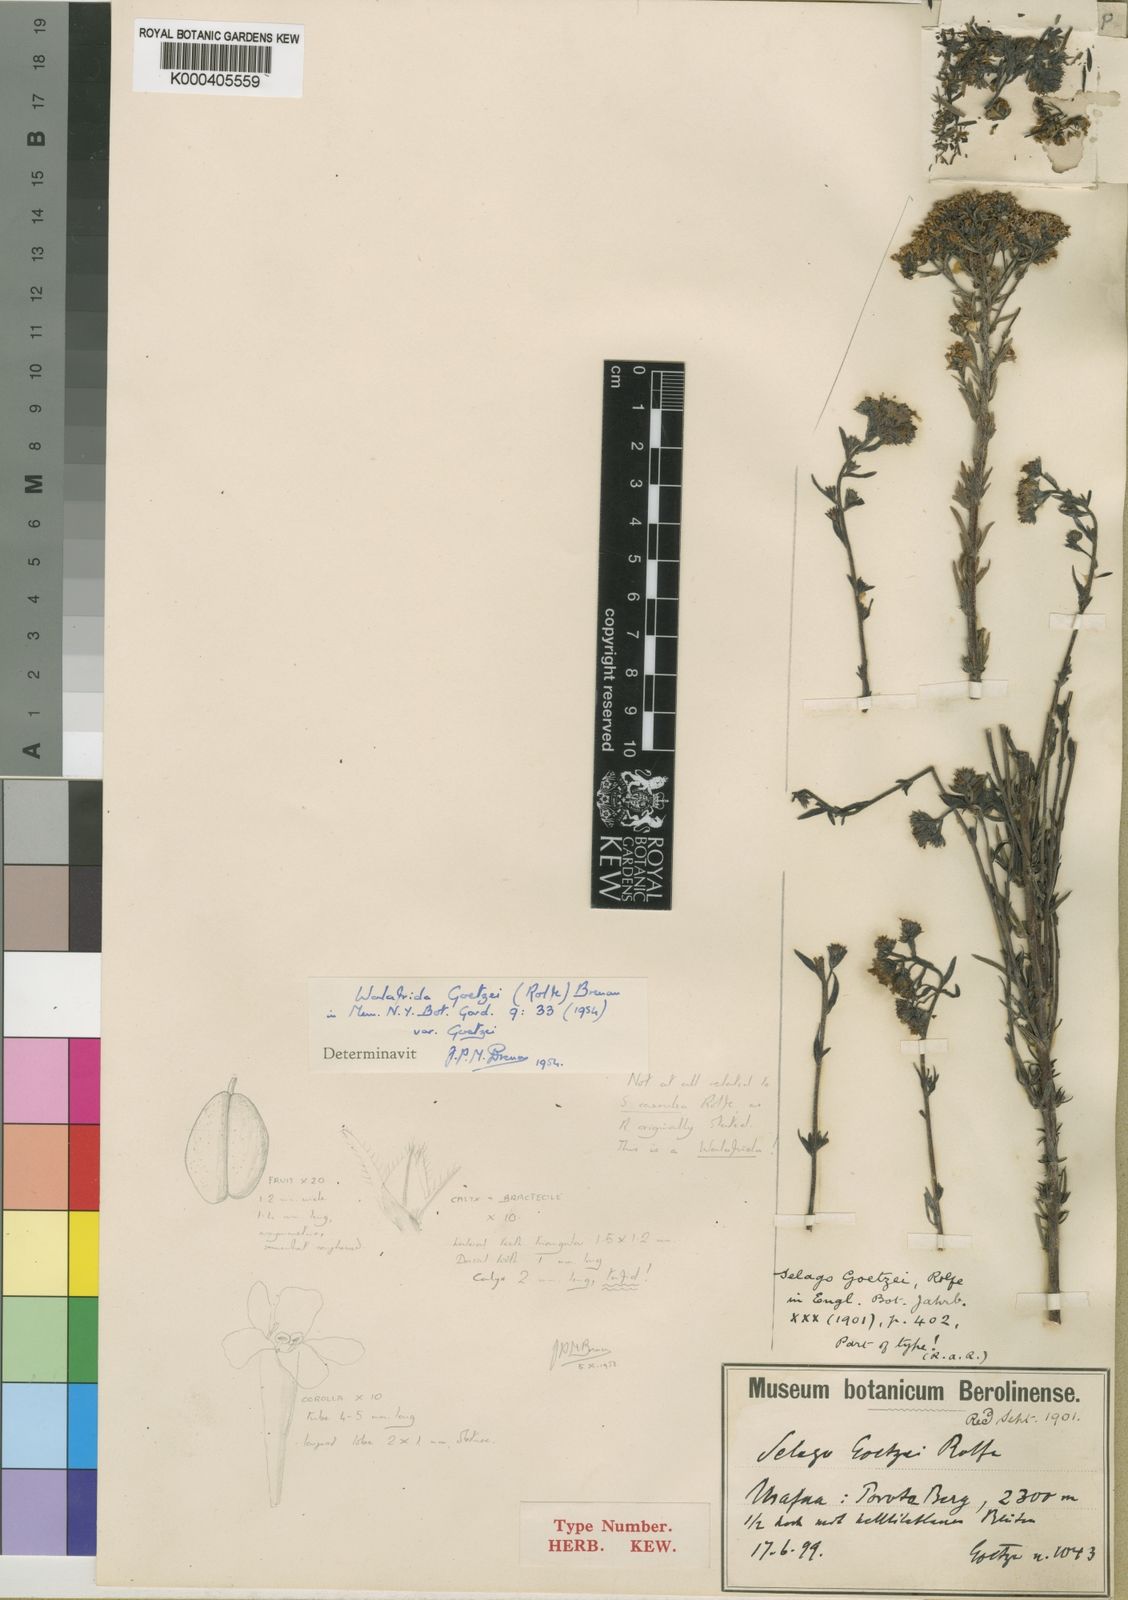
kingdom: Plantae
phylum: Tracheophyta
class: Magnoliopsida
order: Lamiales
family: Scrophulariaceae
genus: Selago
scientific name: Selago goetzei
